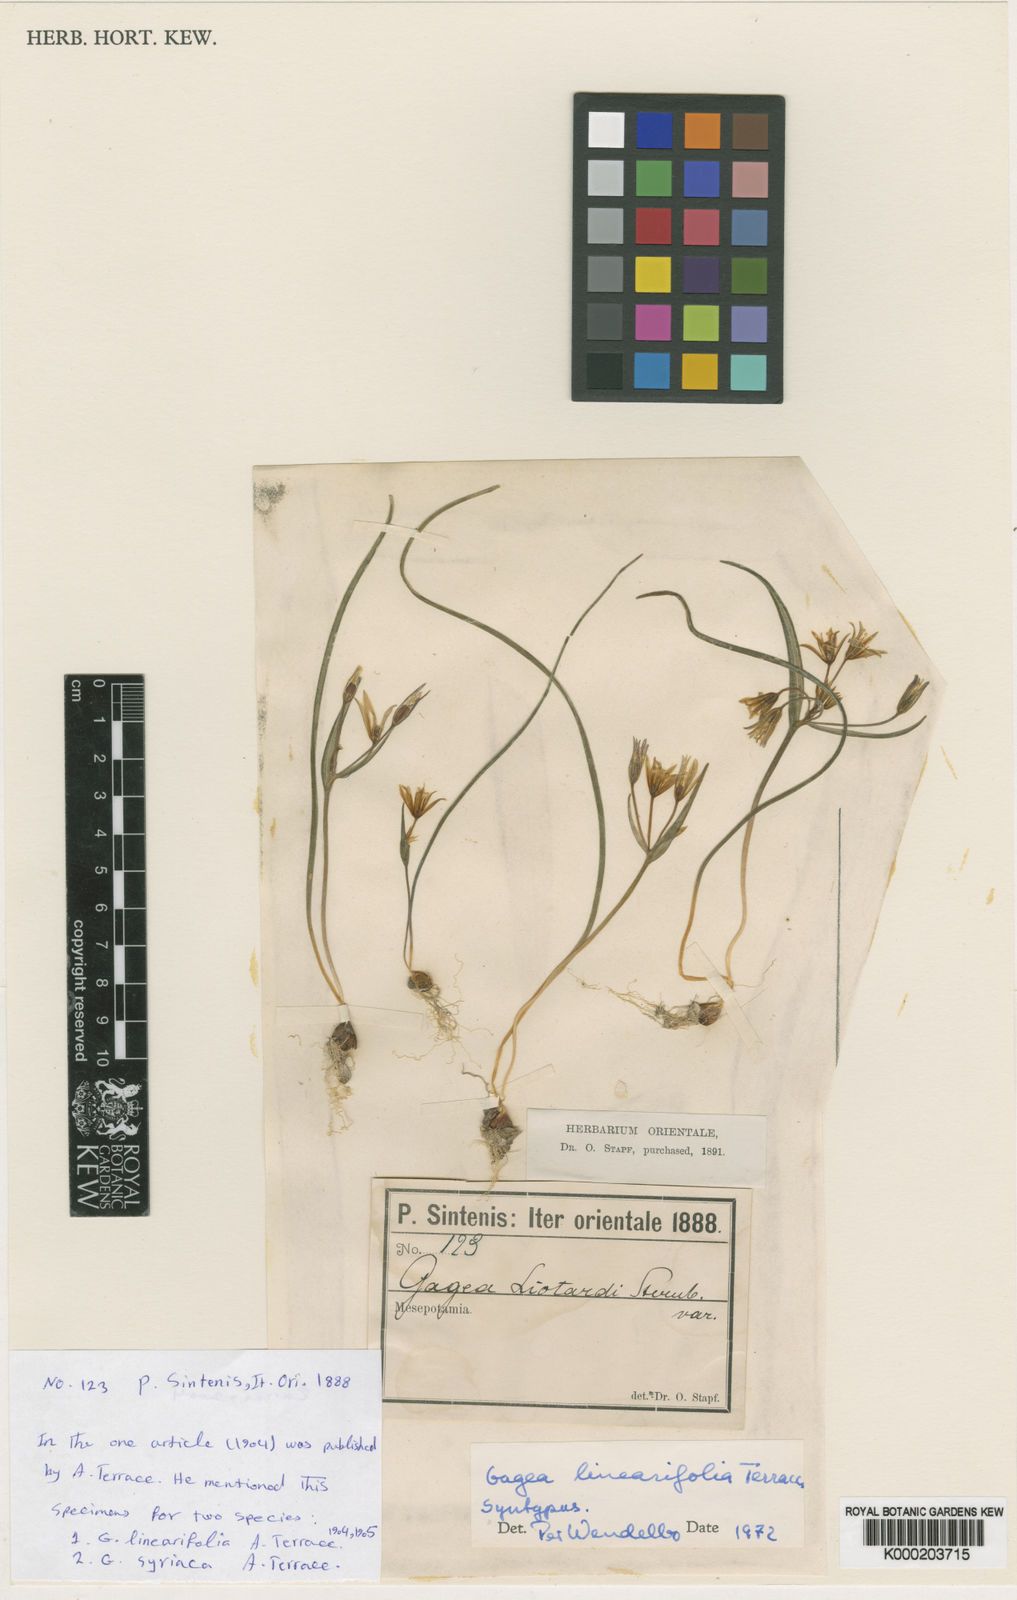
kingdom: Plantae
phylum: Tracheophyta
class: Liliopsida
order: Liliales
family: Liliaceae
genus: Gagea
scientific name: Gagea luteoides
